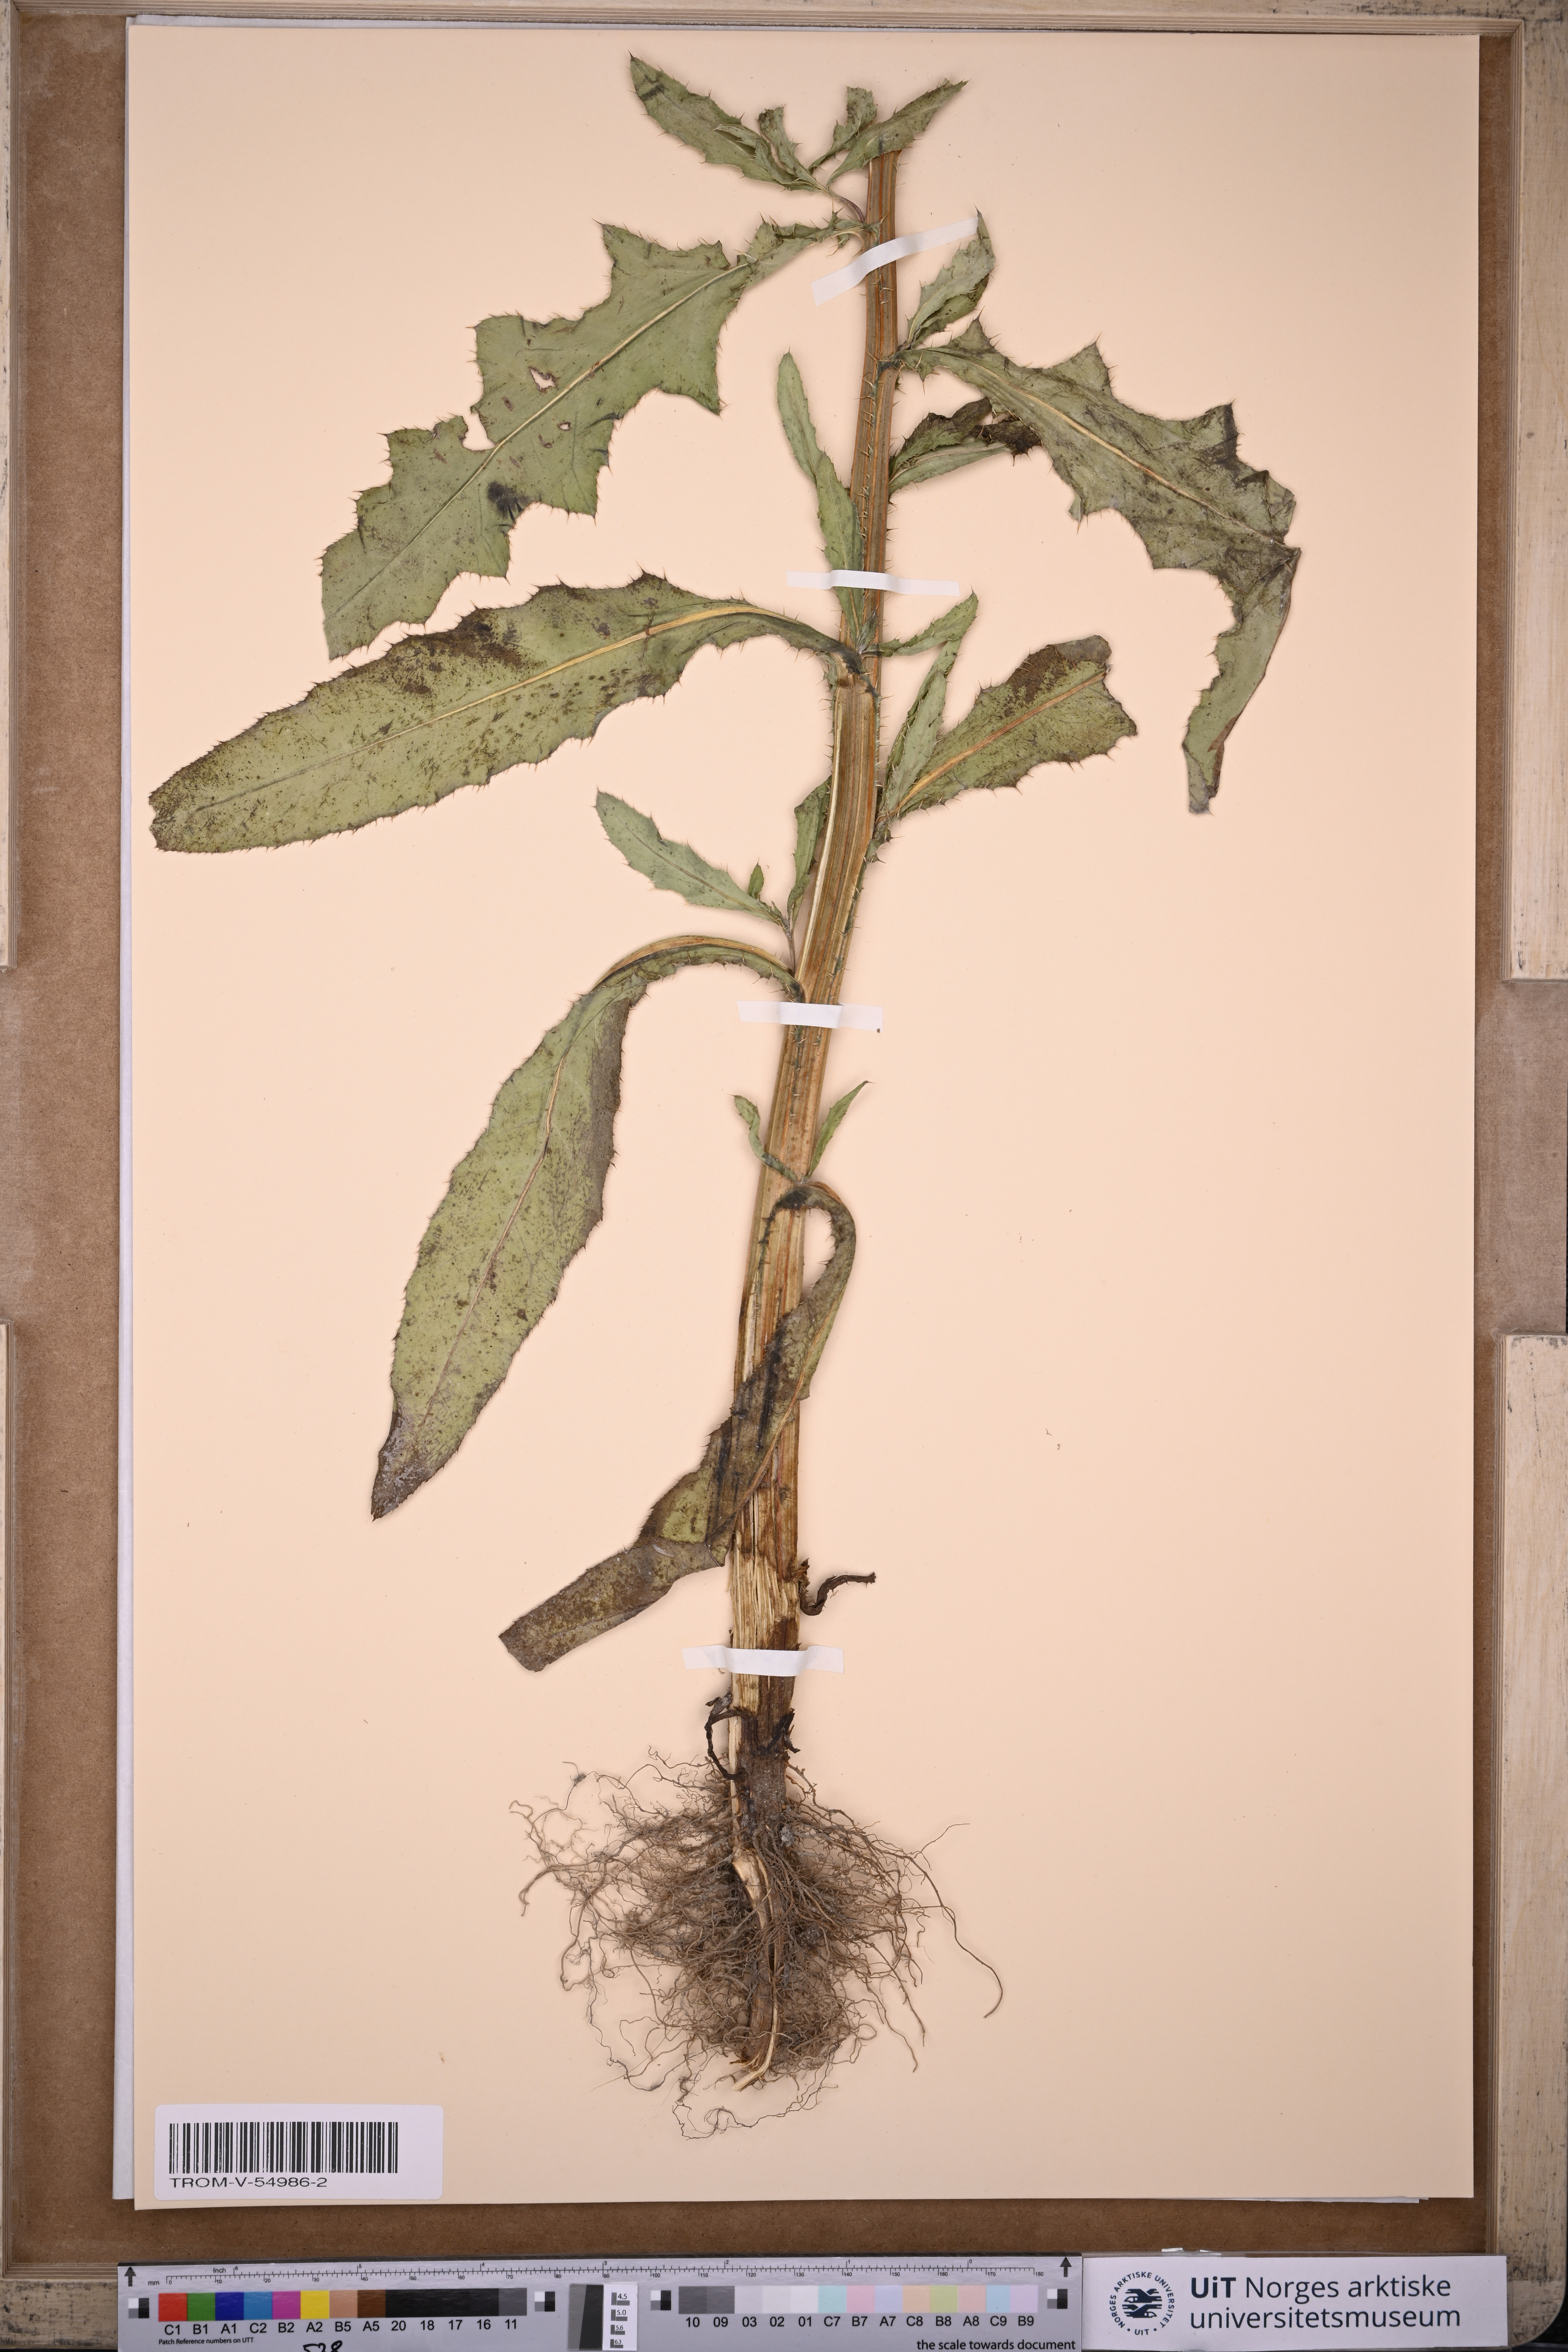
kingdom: Plantae
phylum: Tracheophyta
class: Magnoliopsida
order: Asterales
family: Asteraceae
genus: Cirsium
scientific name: Cirsium arvense
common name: Creeping thistle
